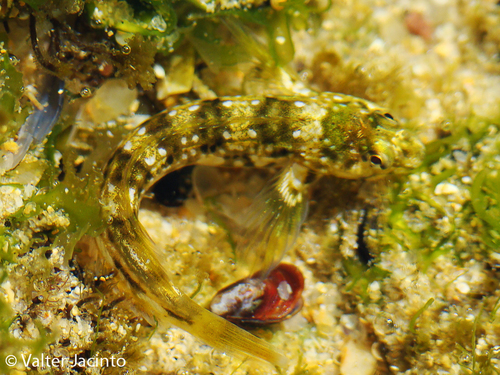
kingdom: Animalia
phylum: Chordata
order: Perciformes
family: Blenniidae
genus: Coryphoblennius
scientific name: Coryphoblennius galerita
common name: Montagu's blenny
